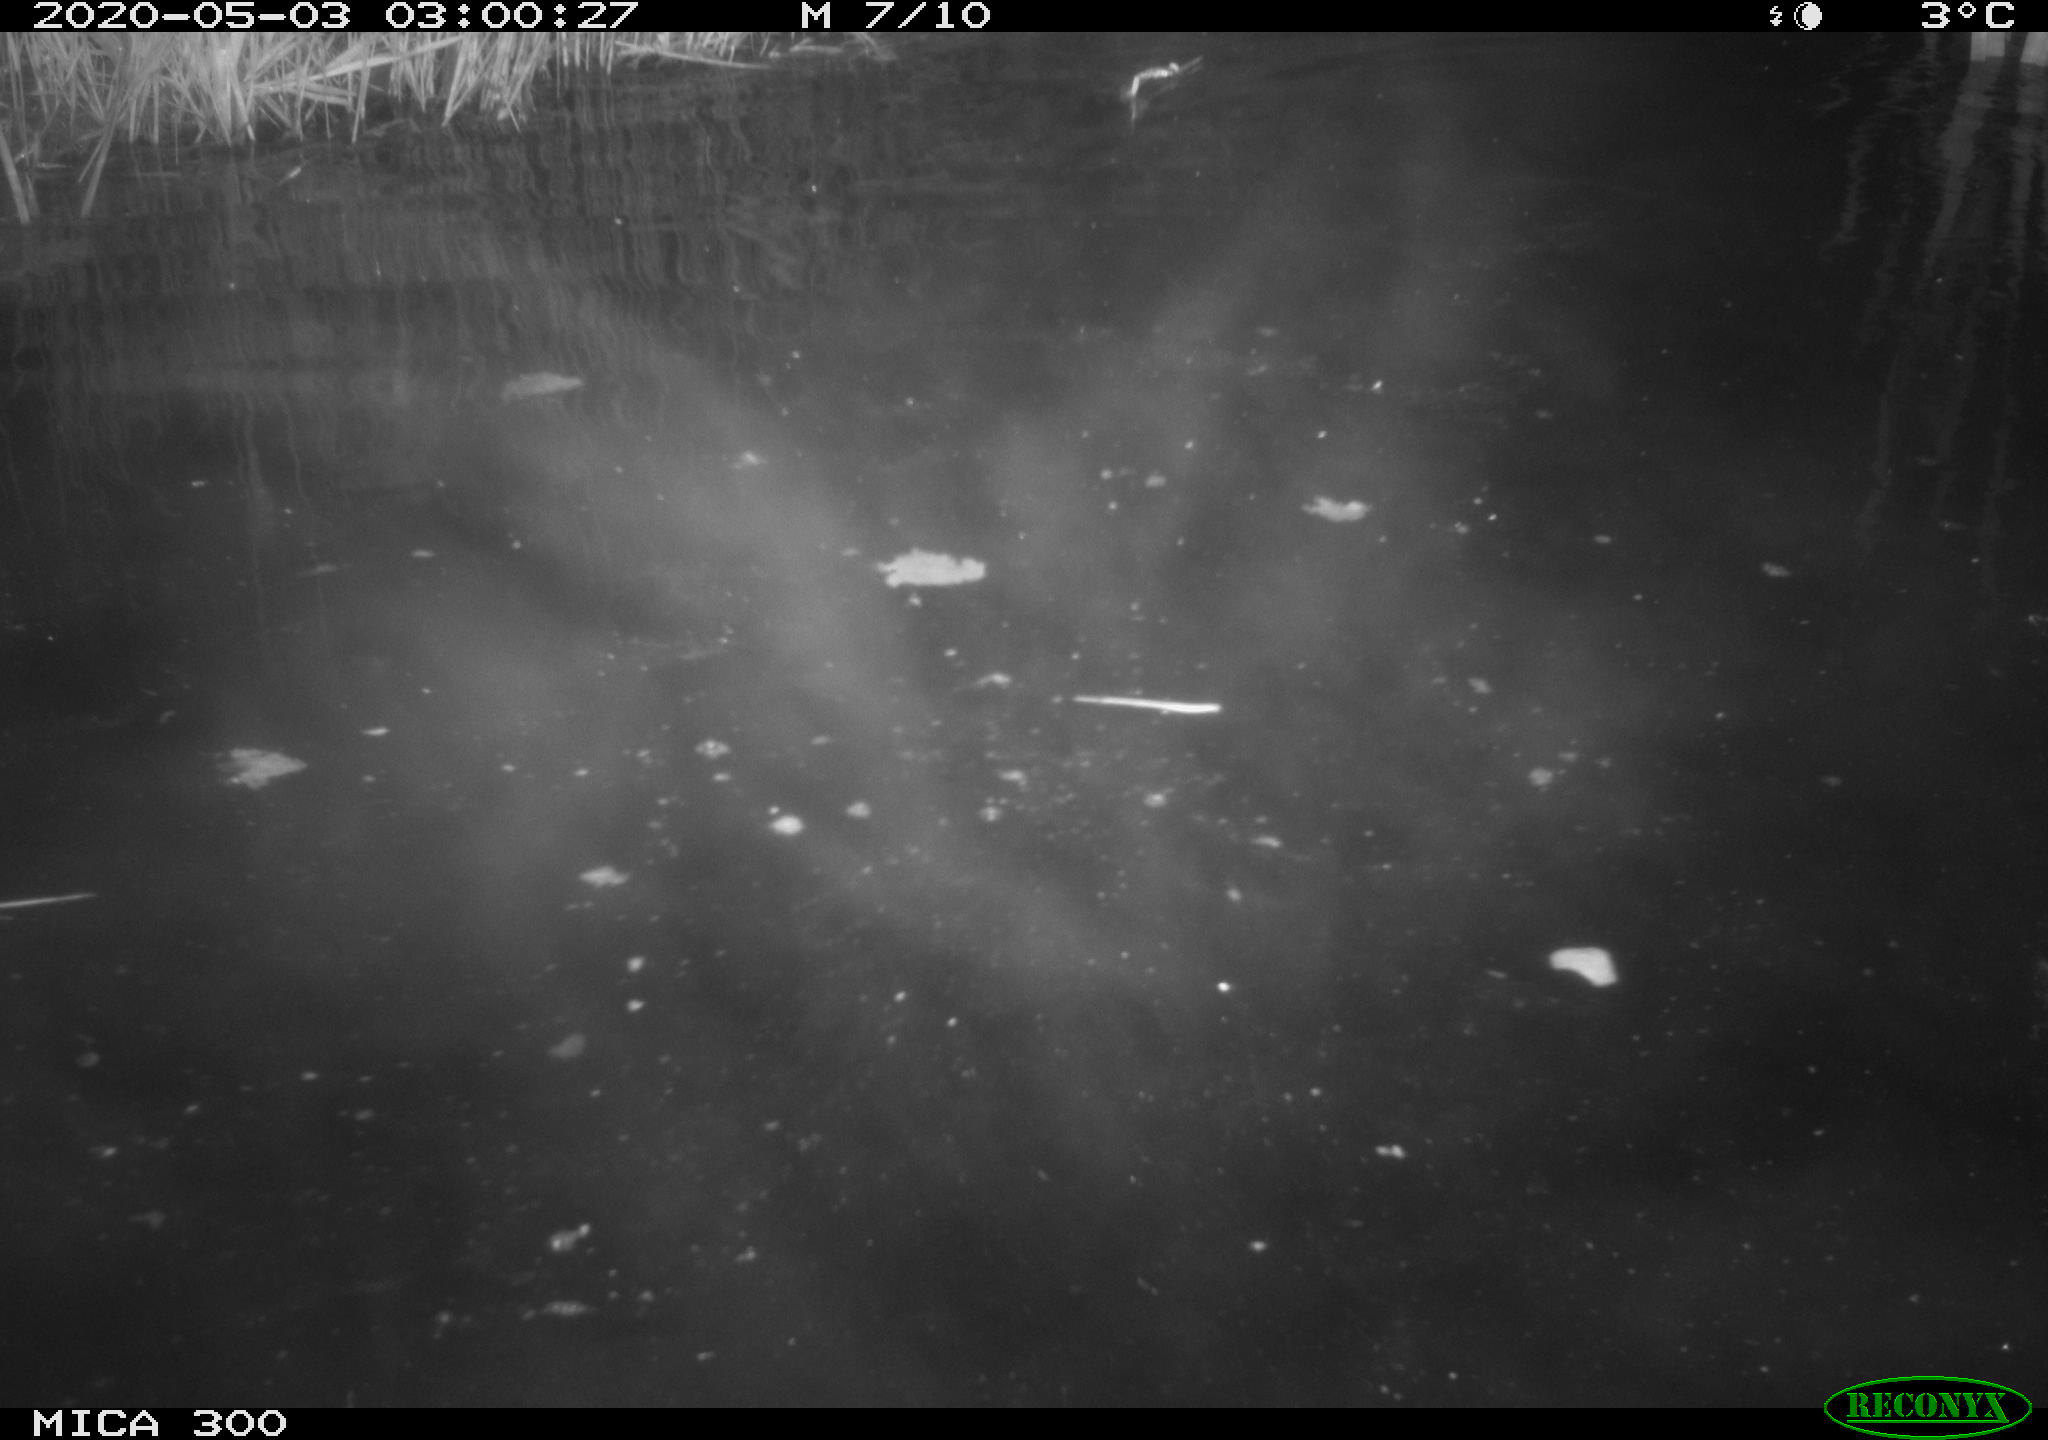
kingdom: Animalia
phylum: Chordata
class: Mammalia
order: Rodentia
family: Castoridae
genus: Castor
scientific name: Castor fiber
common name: Eurasian beaver
